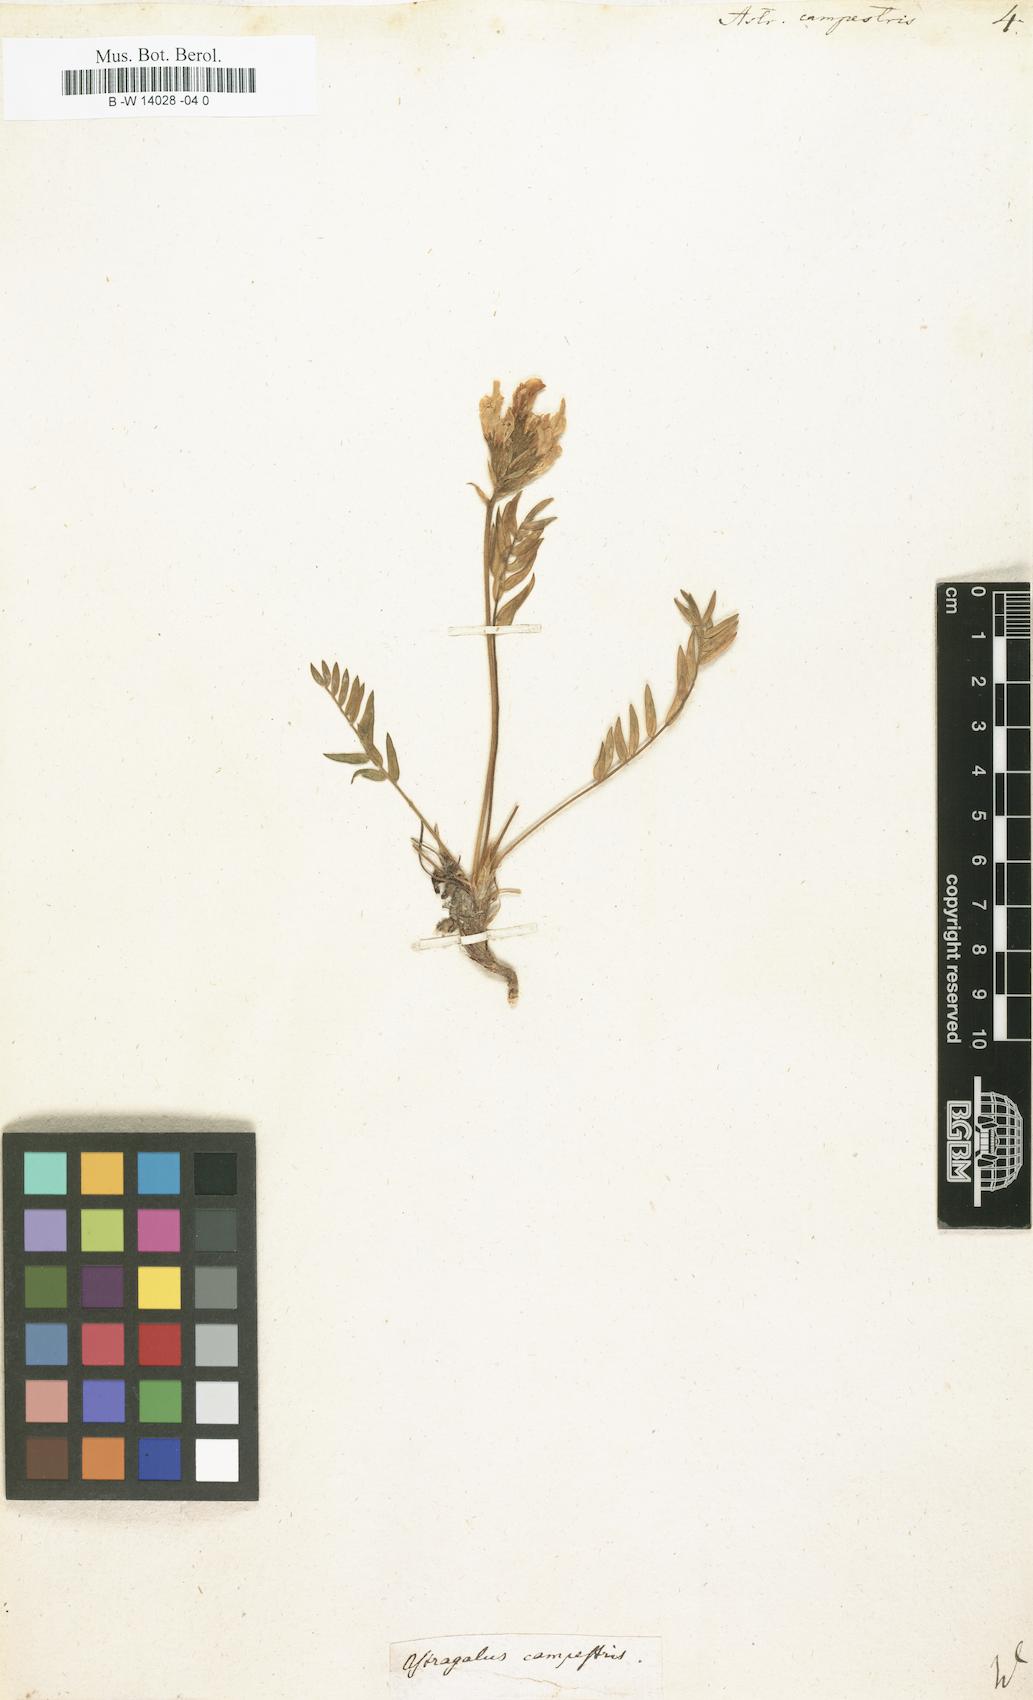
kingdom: Plantae
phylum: Tracheophyta
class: Magnoliopsida
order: Fabales
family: Fabaceae
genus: Oxytropis
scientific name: Oxytropis campestris
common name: Field locoweed
